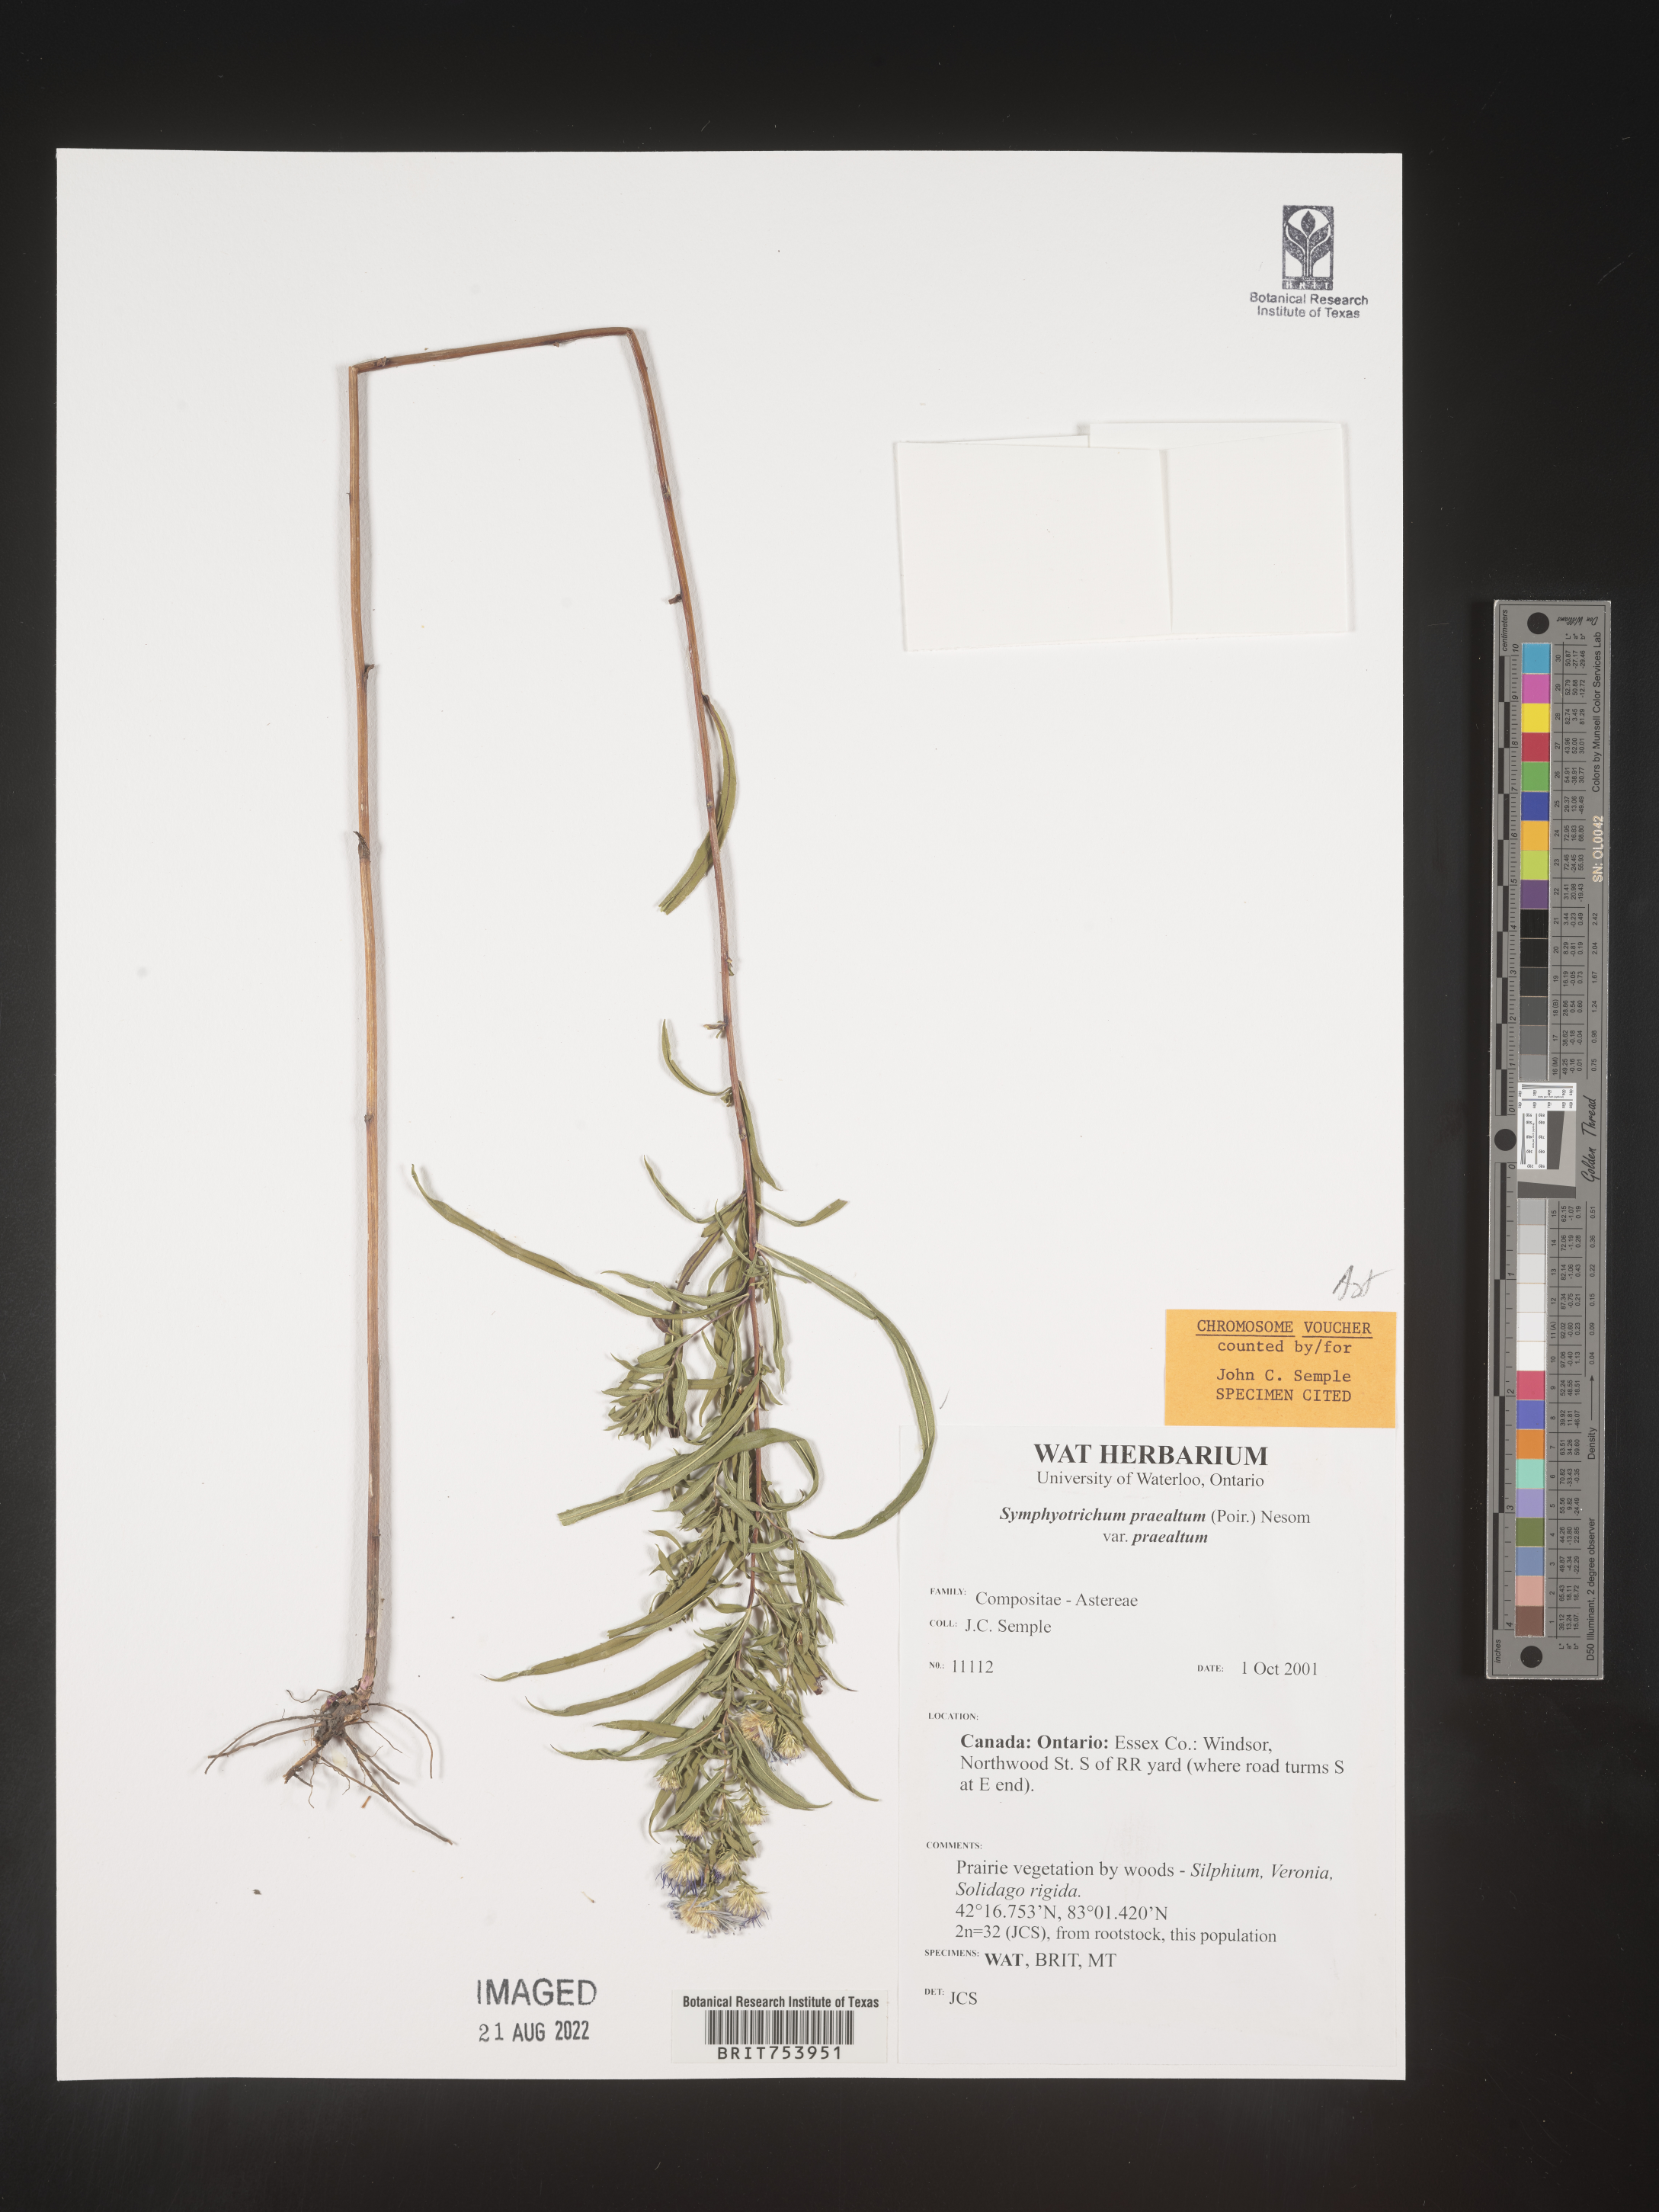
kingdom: Plantae
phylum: Tracheophyta
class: Magnoliopsida
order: Asterales
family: Asteraceae
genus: Symphyotrichum
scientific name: Symphyotrichum praealtum
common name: Willow aster
